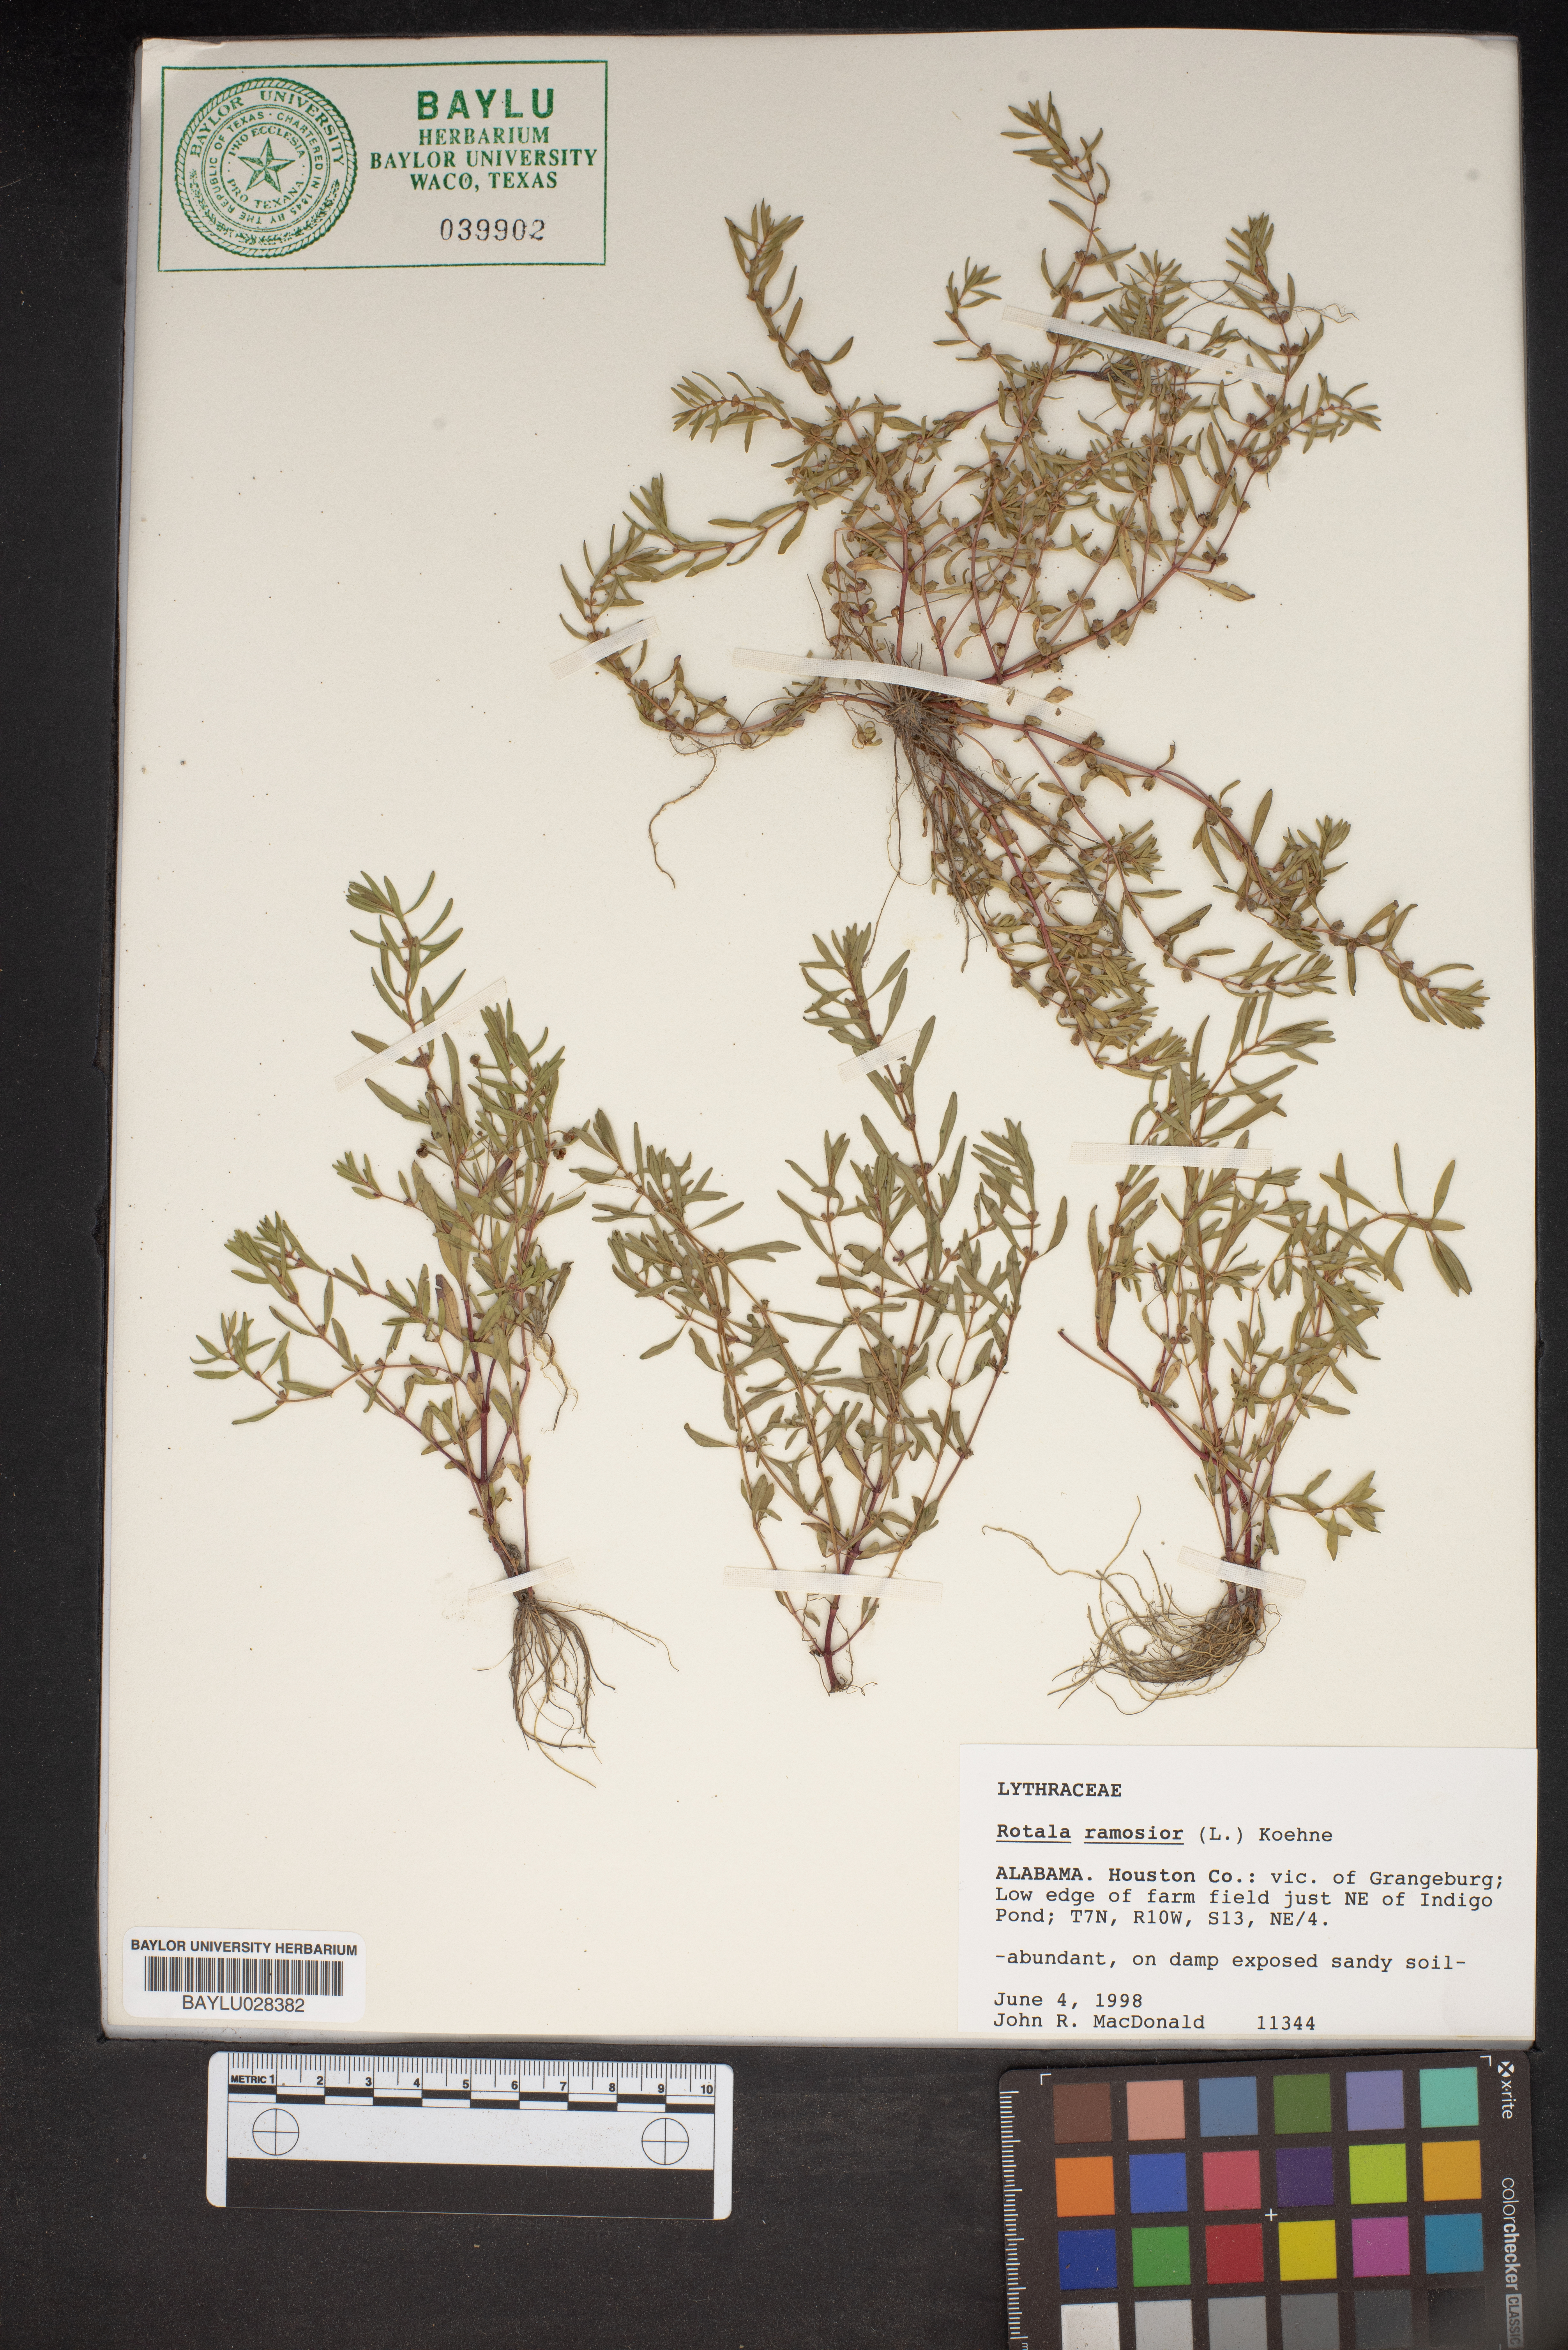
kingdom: Plantae
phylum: Tracheophyta
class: Magnoliopsida
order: Myrtales
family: Lythraceae
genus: Rotala
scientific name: Rotala ramosior
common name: Lowland rotala
